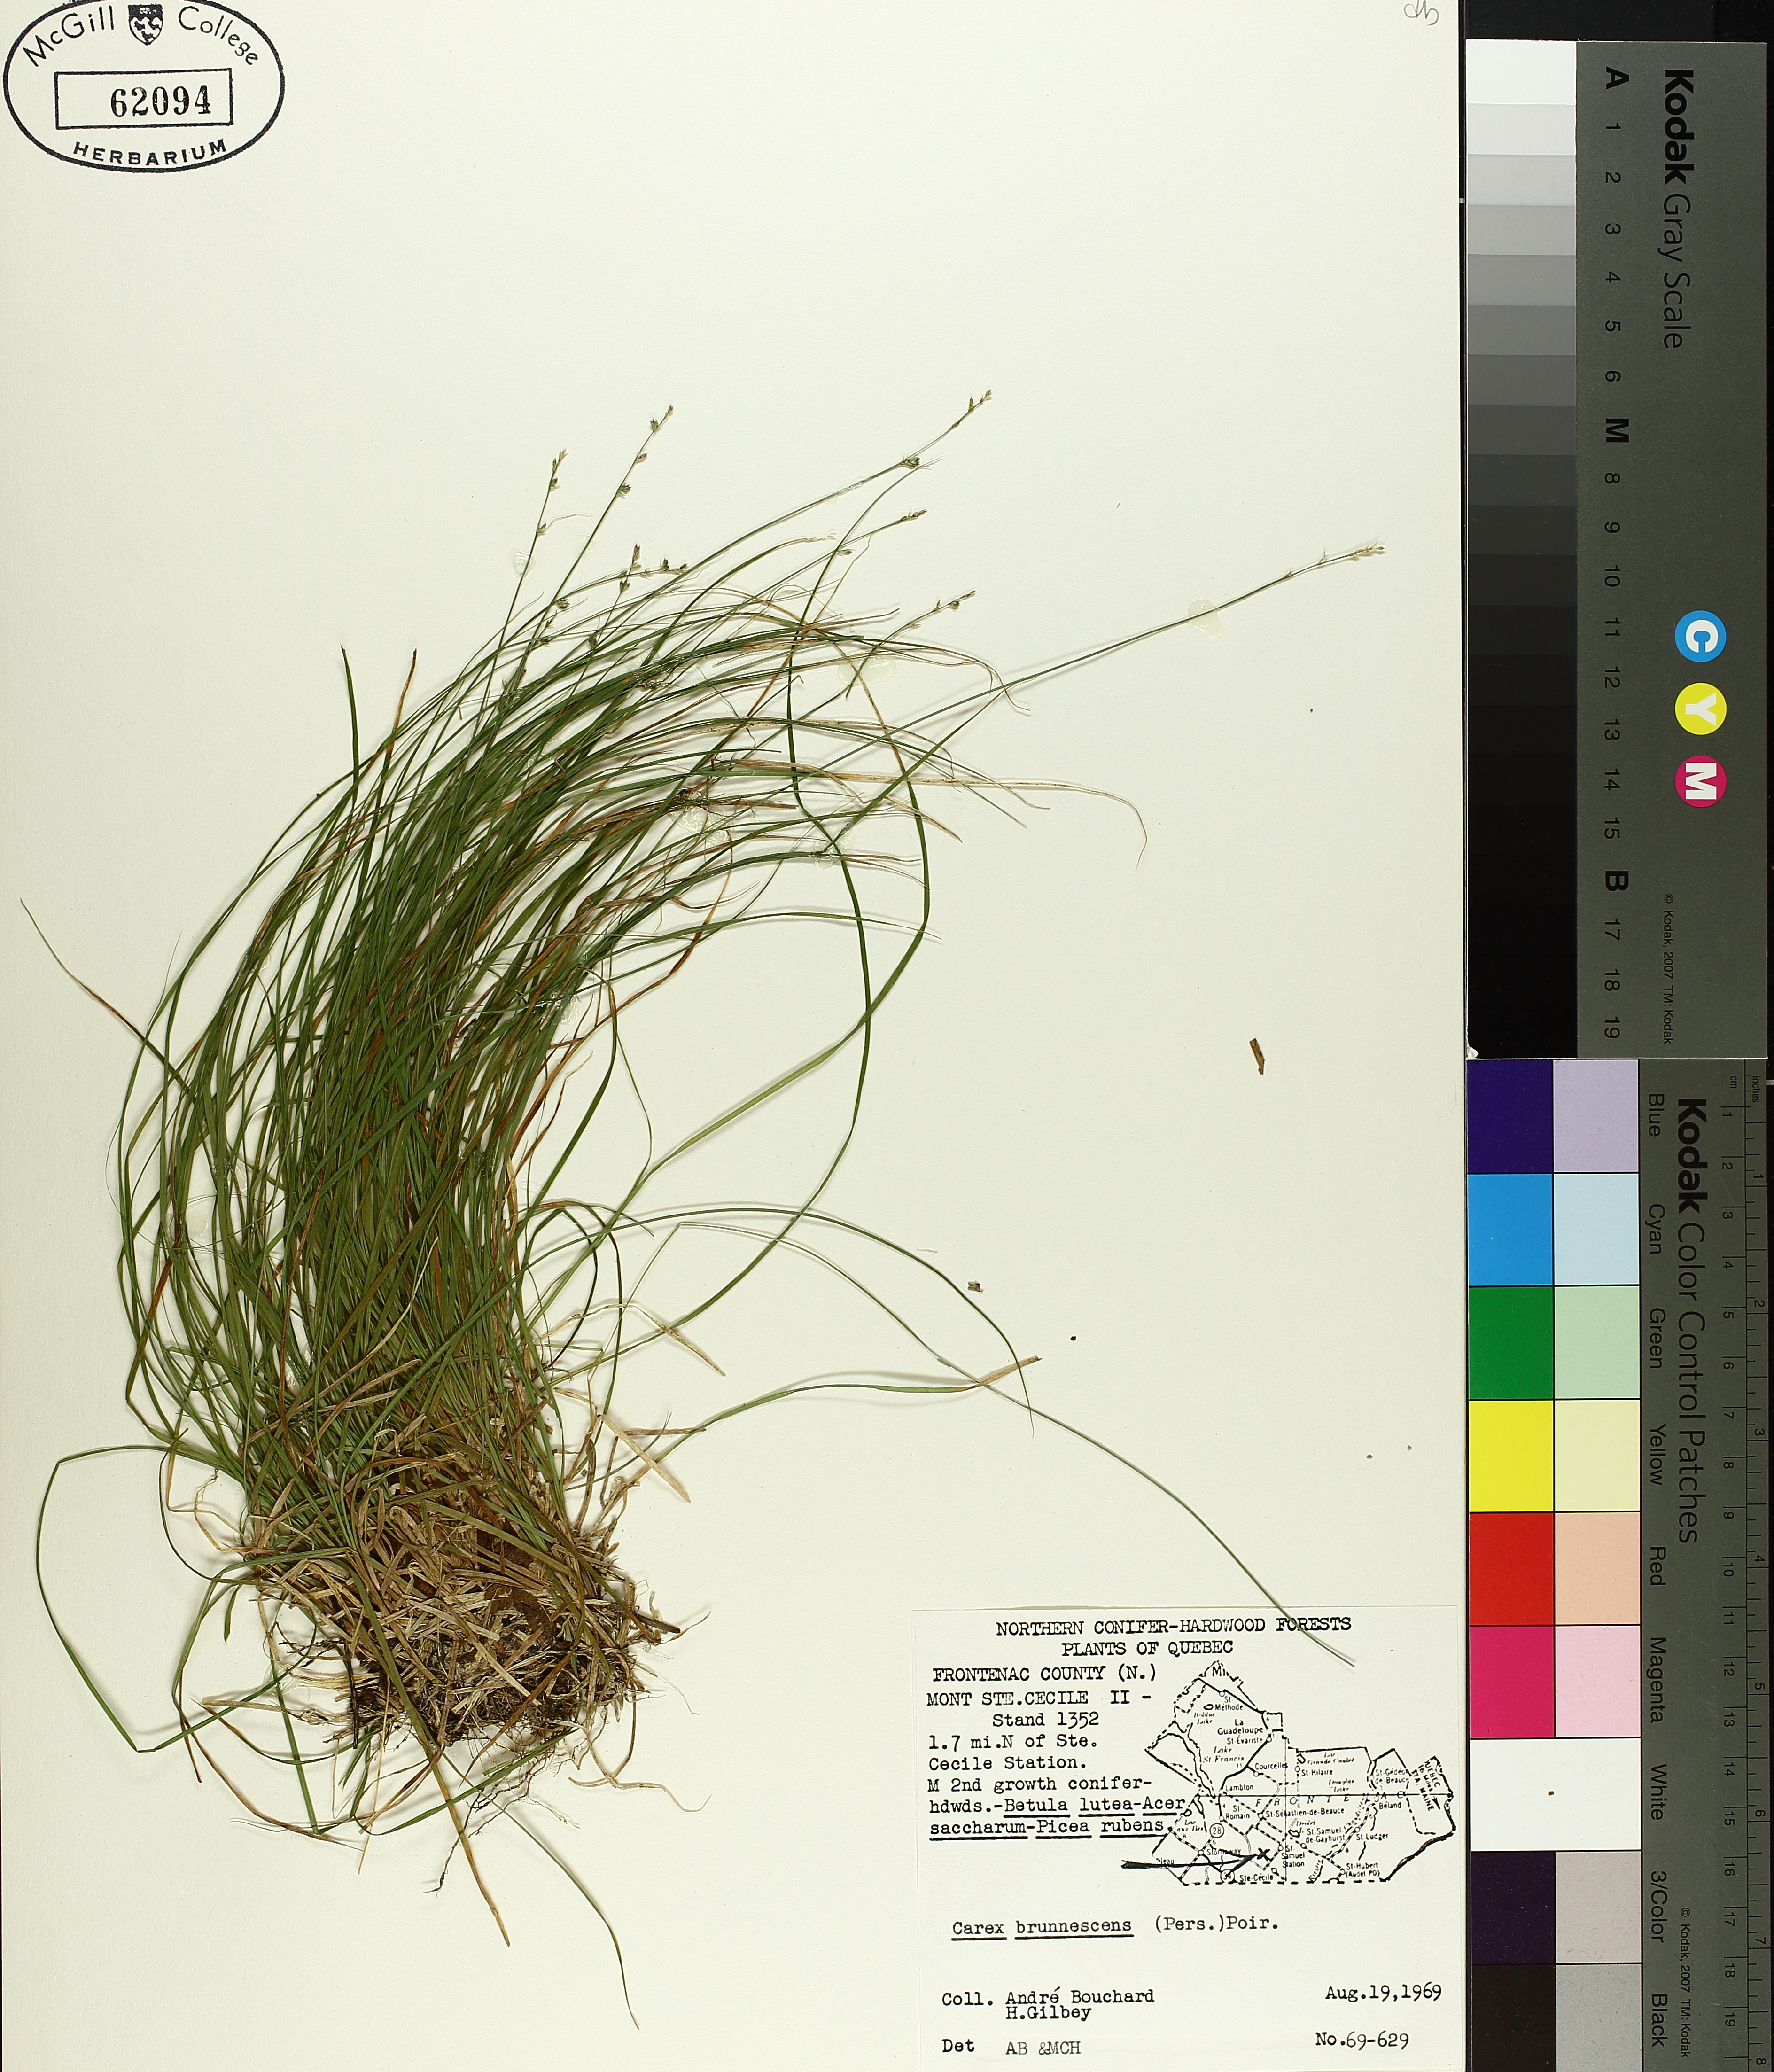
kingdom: Plantae
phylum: Tracheophyta
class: Liliopsida
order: Poales
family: Cyperaceae
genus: Carex
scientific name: Carex brunnescens
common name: Brown sedge
